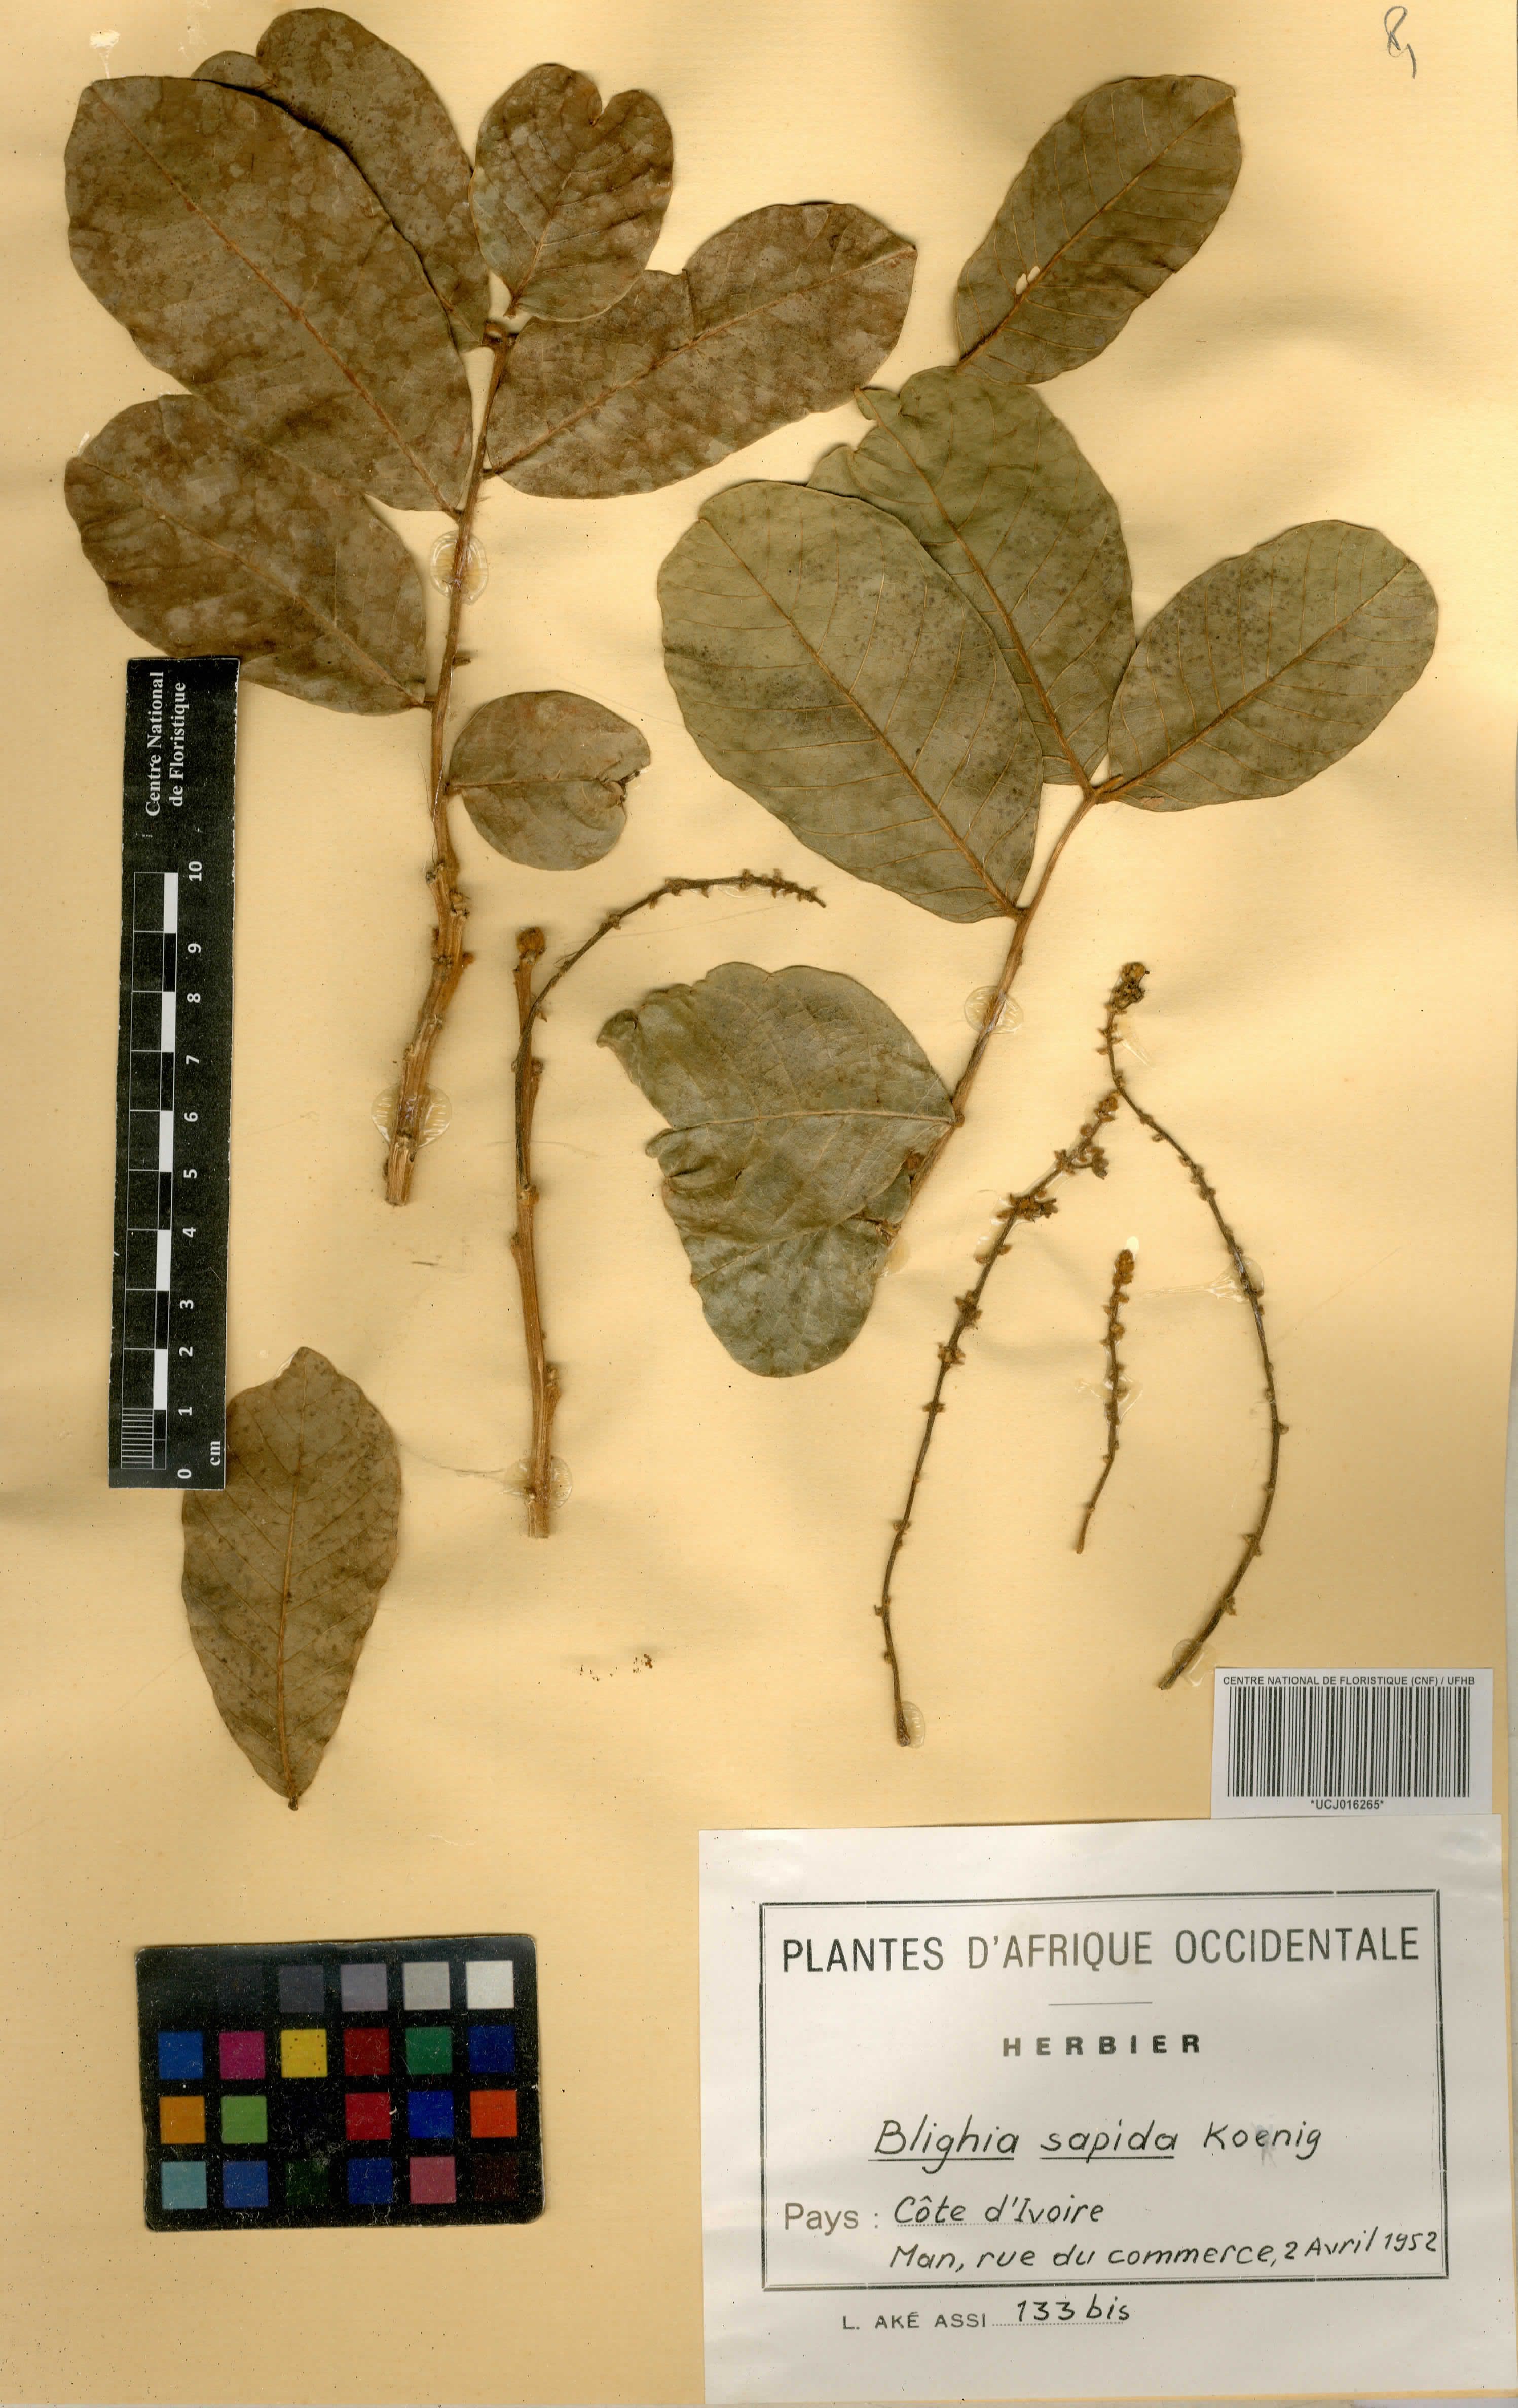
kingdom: Plantae
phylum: Tracheophyta
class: Magnoliopsida
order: Sapindales
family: Sapindaceae
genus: Blighia
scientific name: Blighia sapida
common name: Akee
